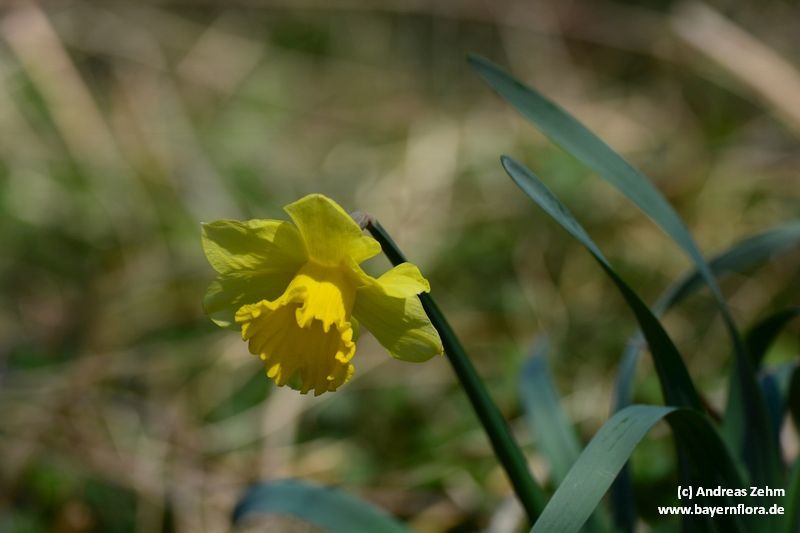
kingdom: Plantae
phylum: Tracheophyta
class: Liliopsida
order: Asparagales
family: Amaryllidaceae
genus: Narcissus
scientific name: Narcissus pseudonarcissus
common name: Daffodil
